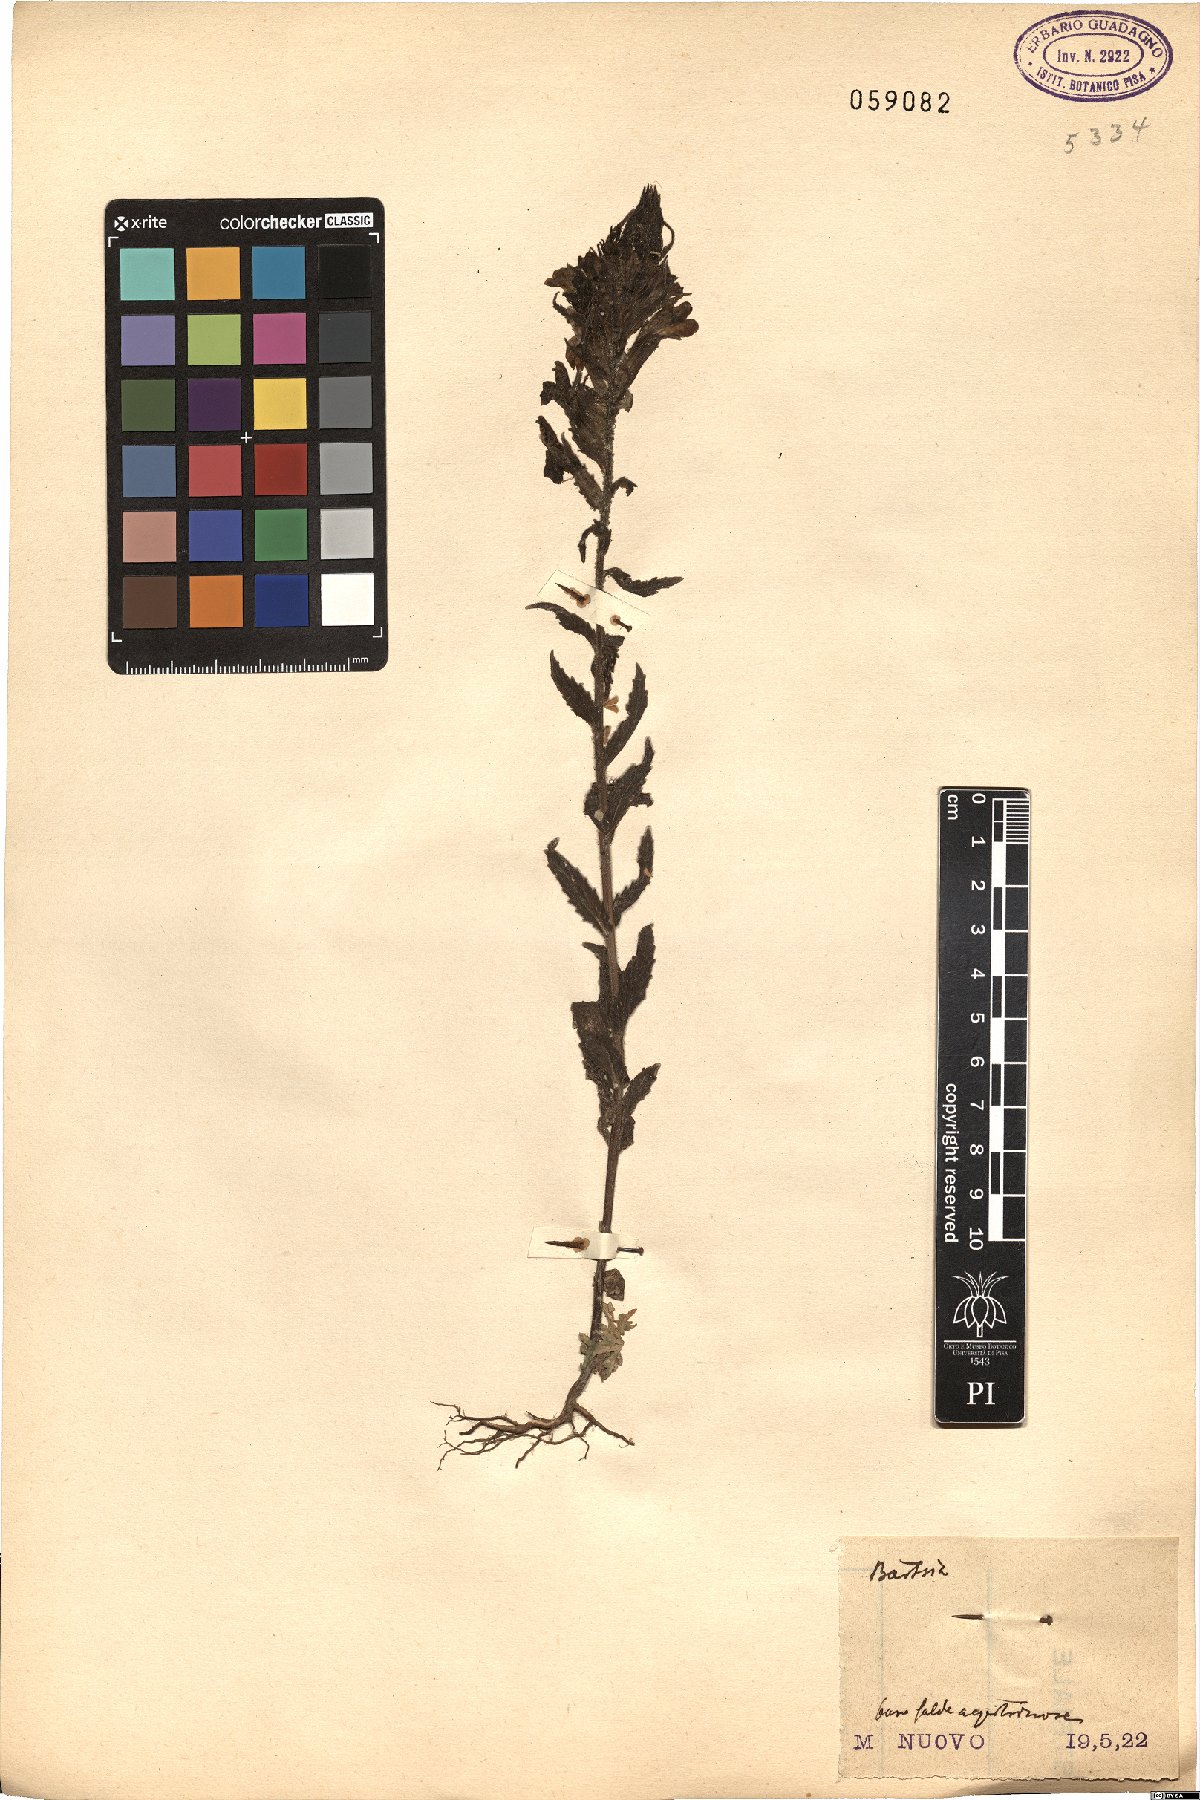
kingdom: Plantae
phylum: Tracheophyta
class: Magnoliopsida
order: Lamiales
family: Orobanchaceae
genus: Bartsia
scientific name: Bartsia
